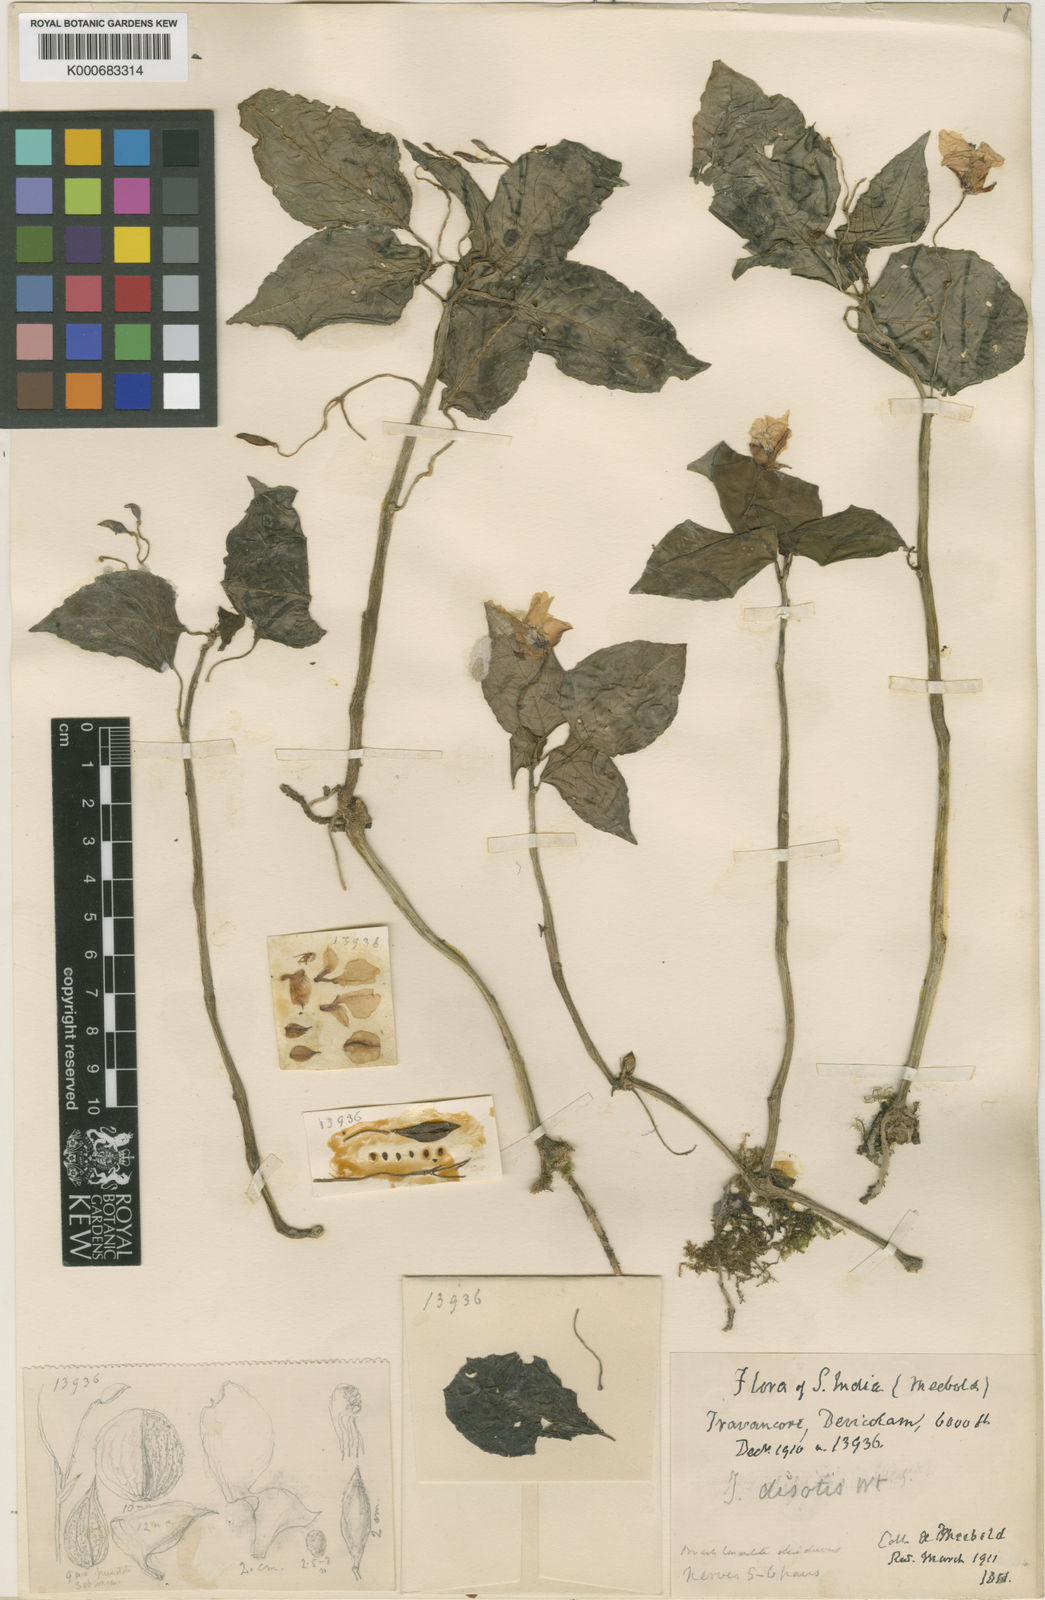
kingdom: Plantae
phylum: Tracheophyta
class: Magnoliopsida
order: Ericales
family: Balsaminaceae
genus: Impatiens
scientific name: Impatiens disotis
